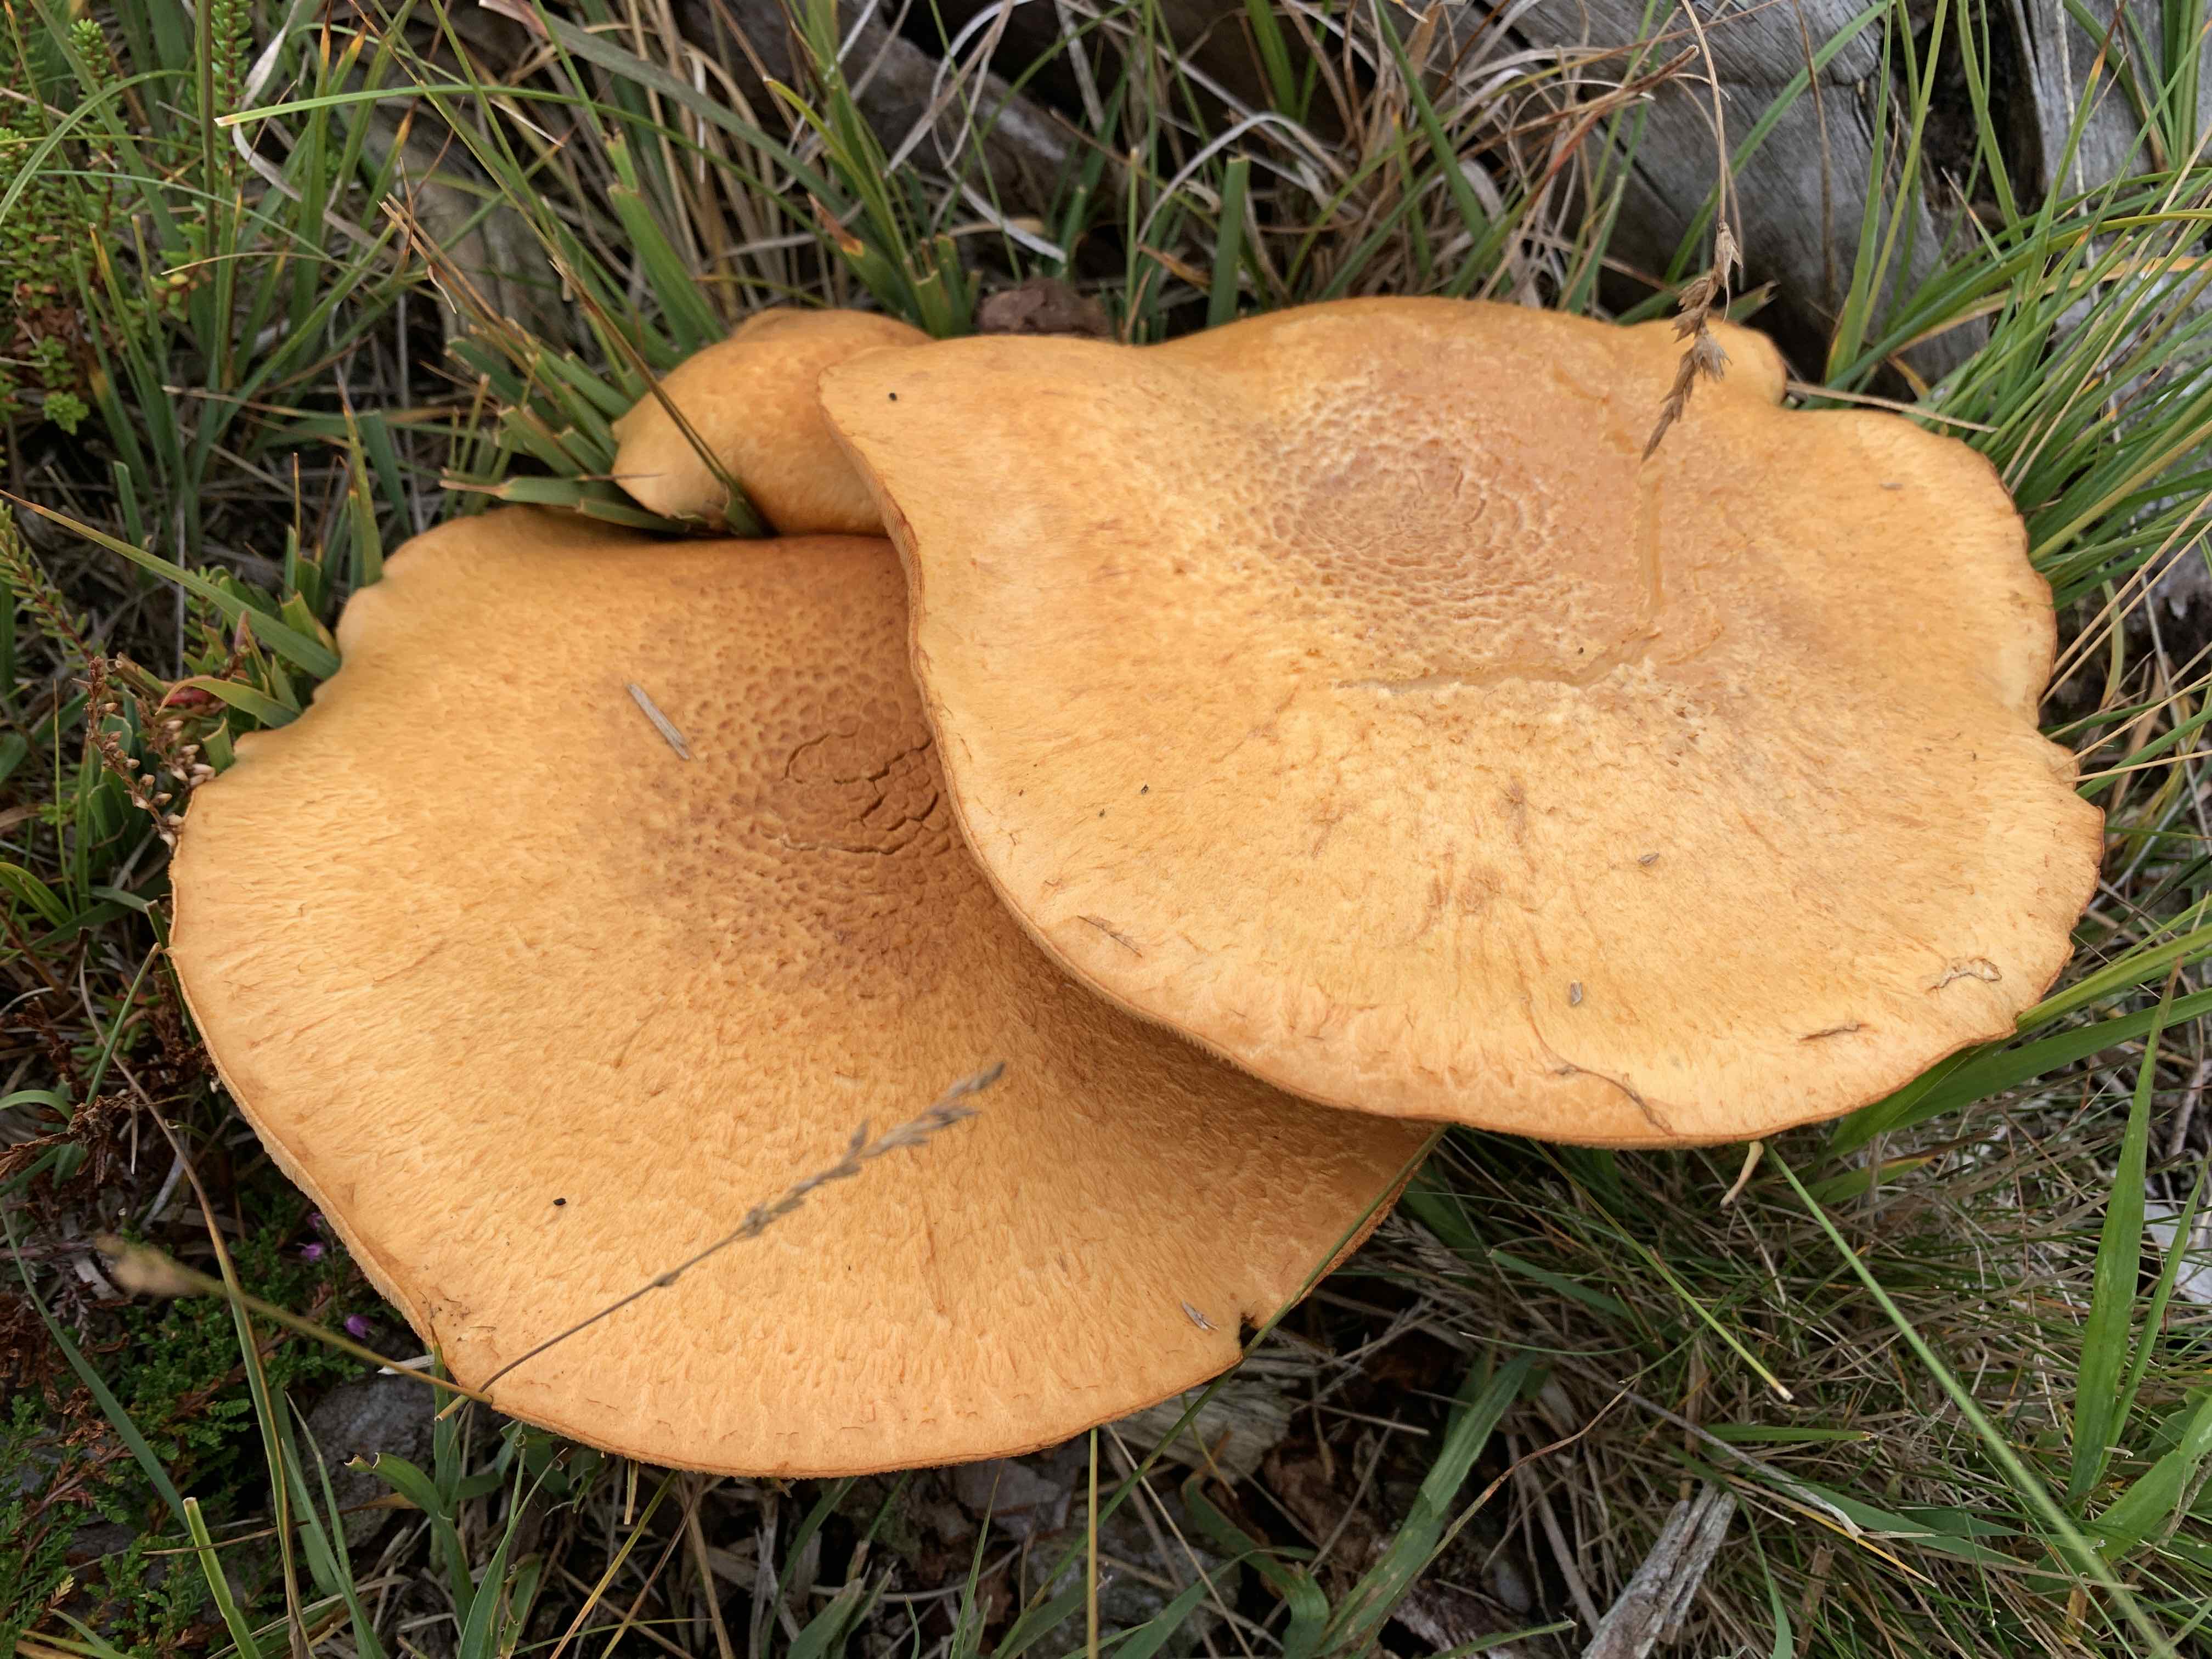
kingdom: Fungi
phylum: Basidiomycota
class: Agaricomycetes
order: Agaricales
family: Hymenogastraceae
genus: Gymnopilus
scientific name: Gymnopilus spectabilis
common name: fibret flammehat
